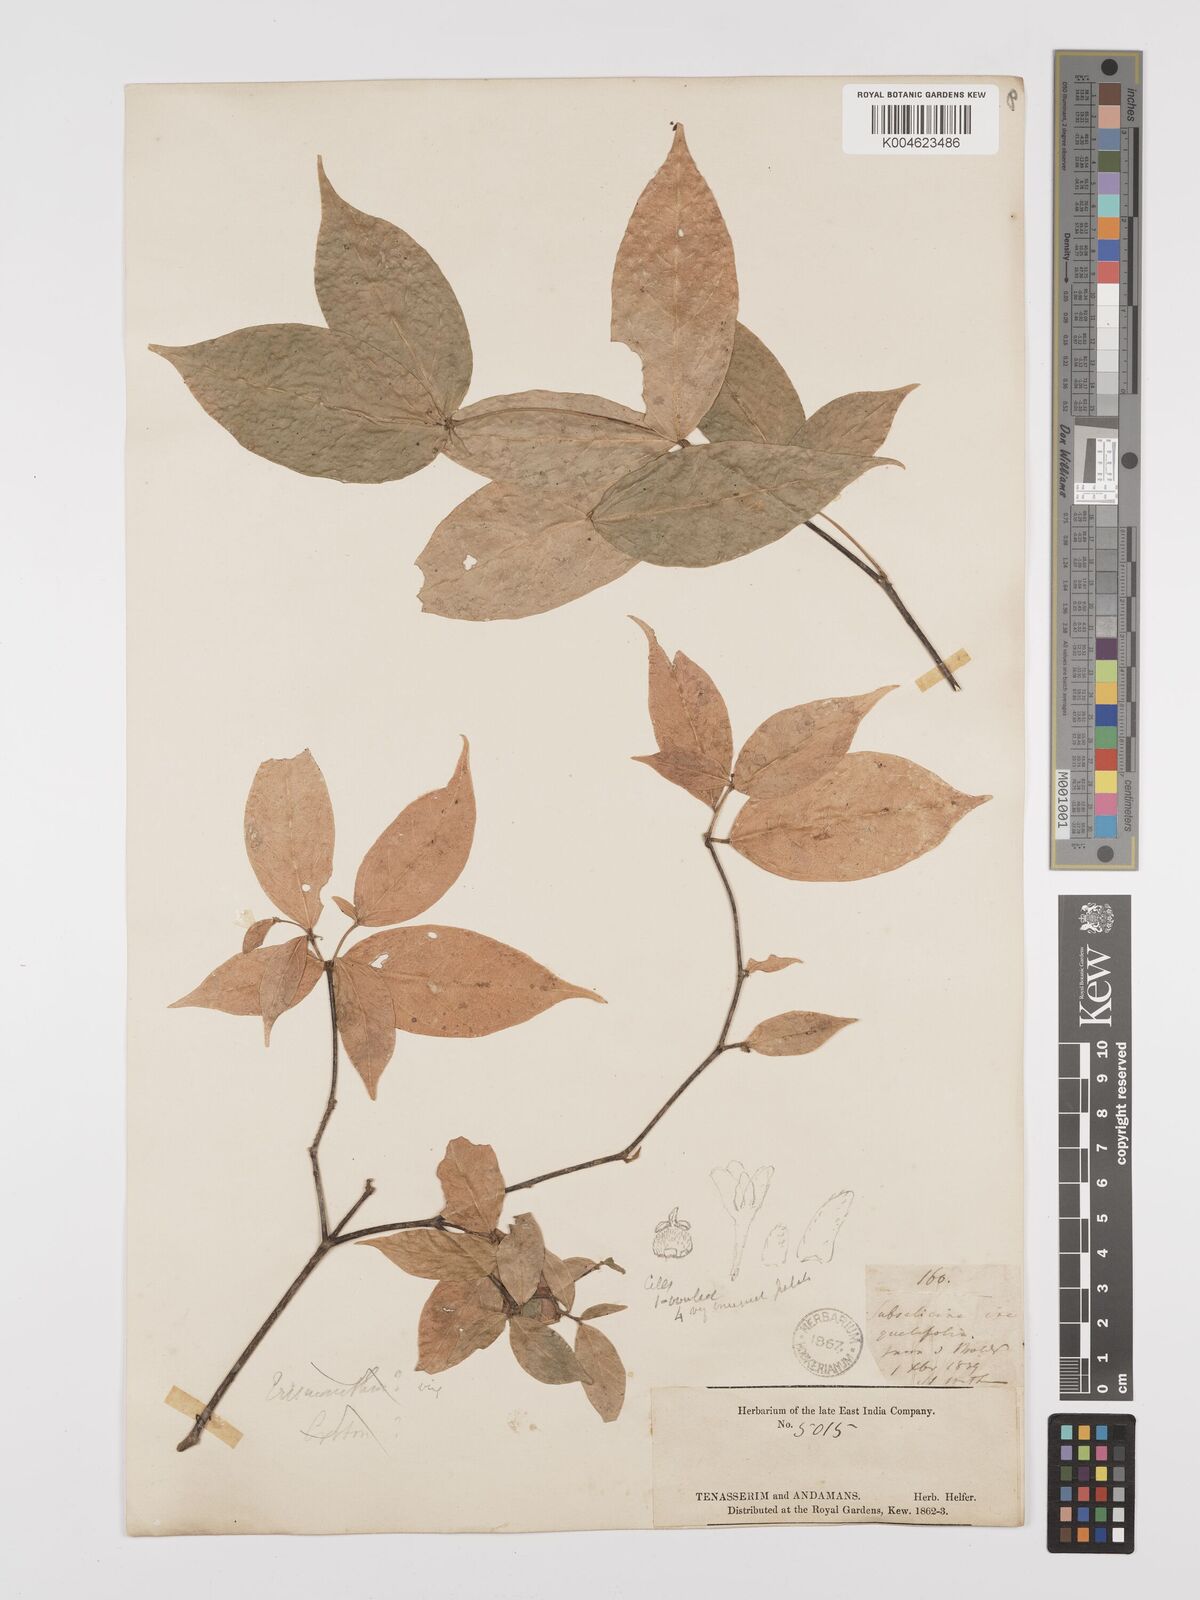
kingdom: Plantae
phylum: Tracheophyta
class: Magnoliopsida
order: Malpighiales
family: Euphorbiaceae
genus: Trigonostemon
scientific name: Trigonostemon laevigatus
